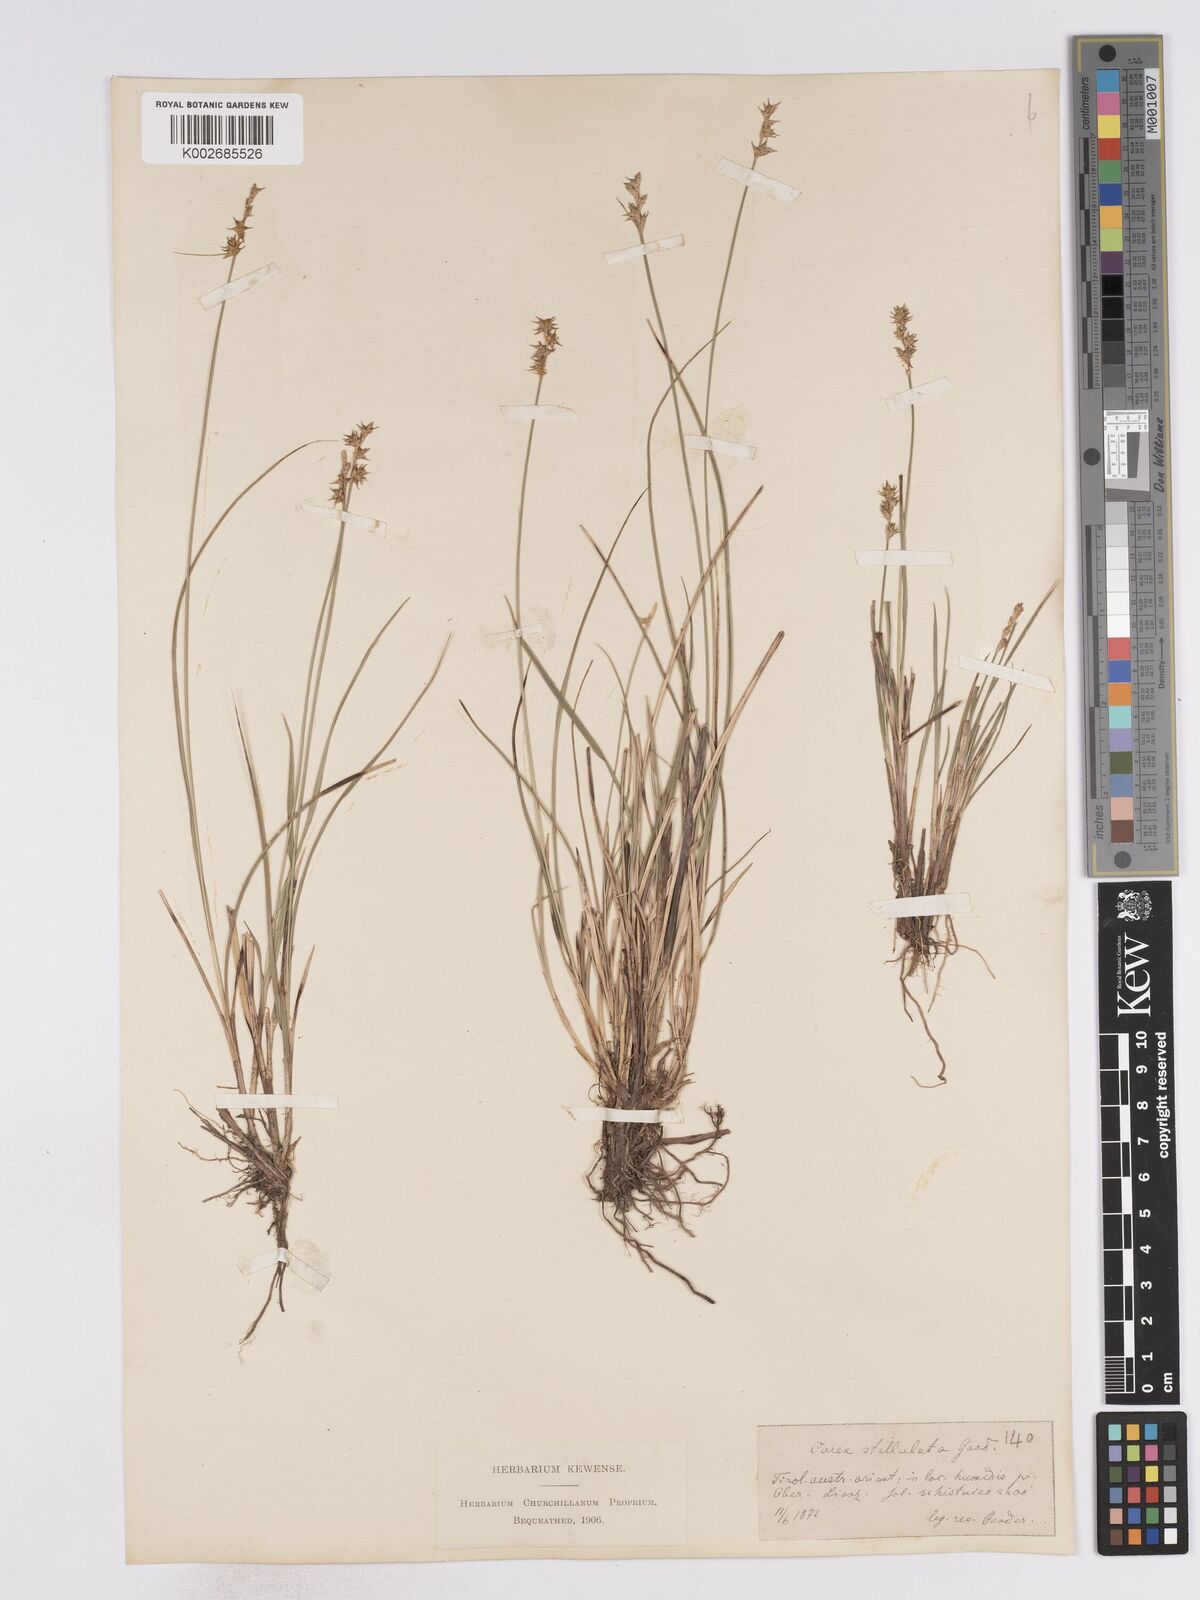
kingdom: Plantae
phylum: Tracheophyta
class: Liliopsida
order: Poales
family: Cyperaceae
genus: Carex
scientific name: Carex echinata
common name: Star sedge
